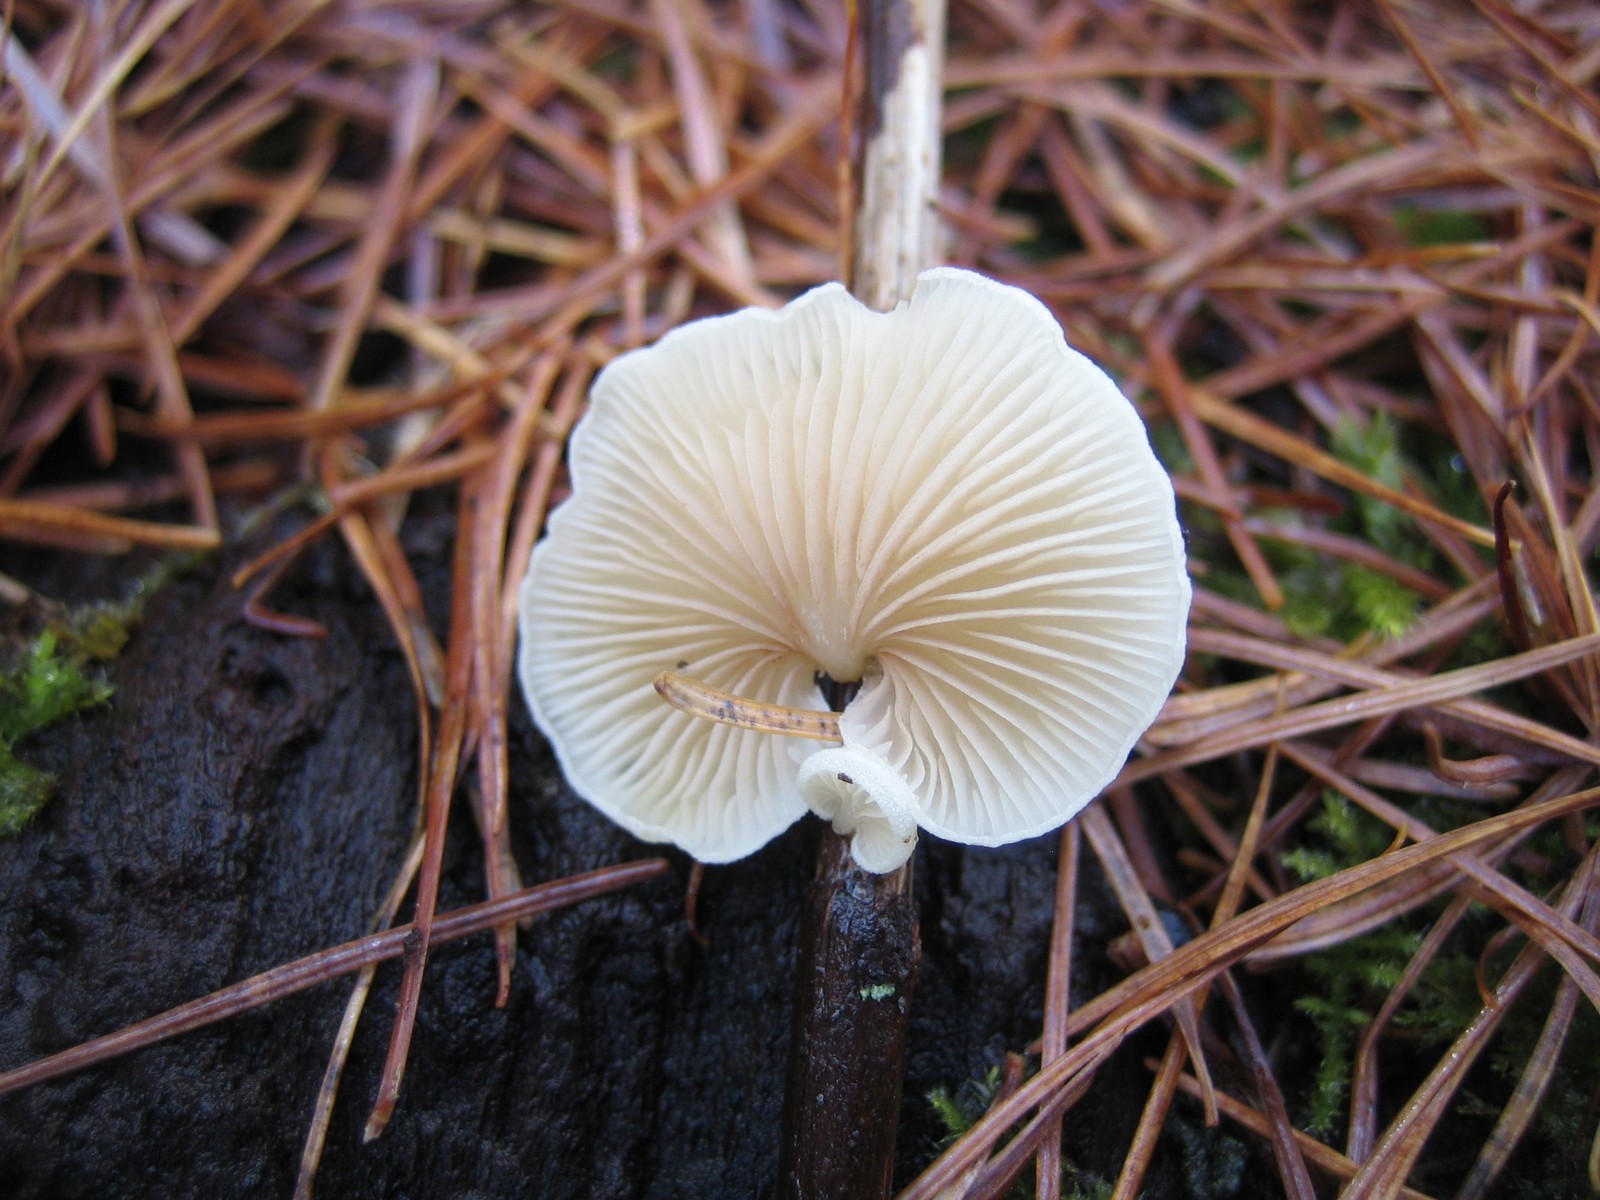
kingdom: Fungi
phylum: Basidiomycota
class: Agaricomycetes
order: Agaricales
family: Crepidotaceae
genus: Crepidotus
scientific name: Crepidotus
